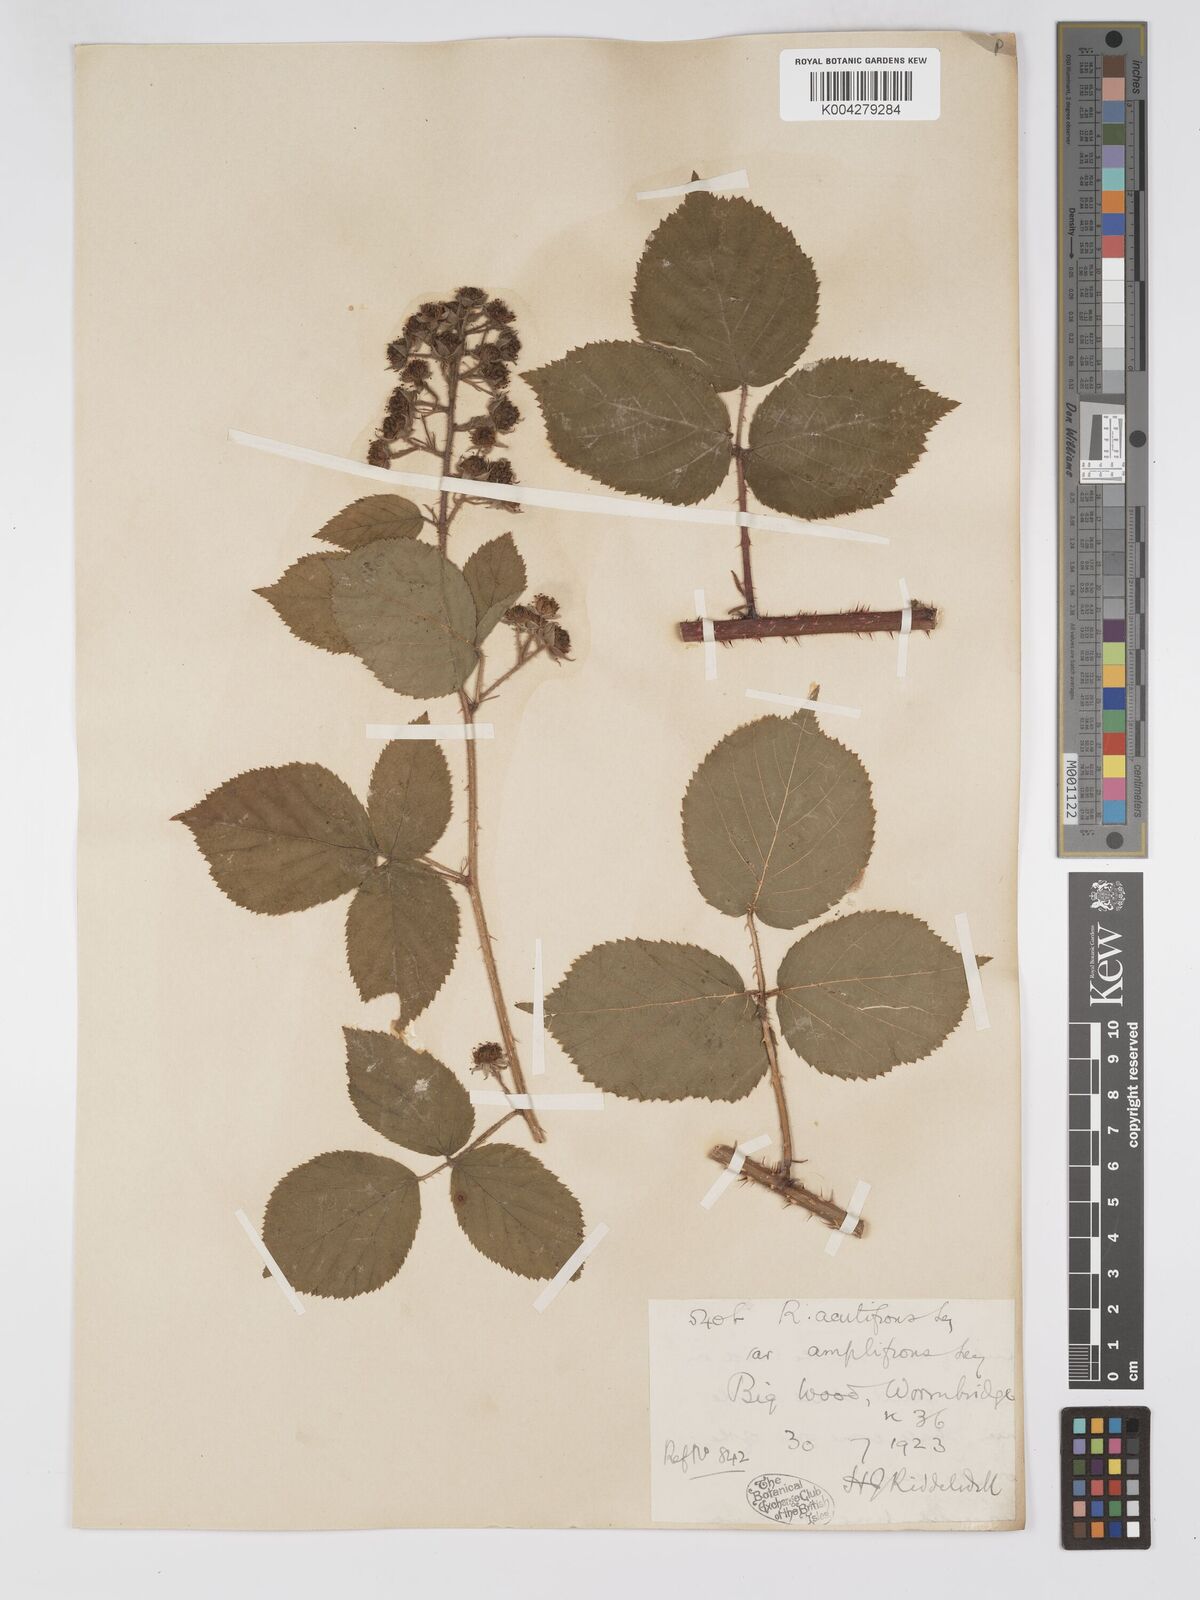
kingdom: Plantae
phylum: Tracheophyta
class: Magnoliopsida
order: Rosales
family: Rosaceae
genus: Rubus
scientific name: Rubus laxatifrons
